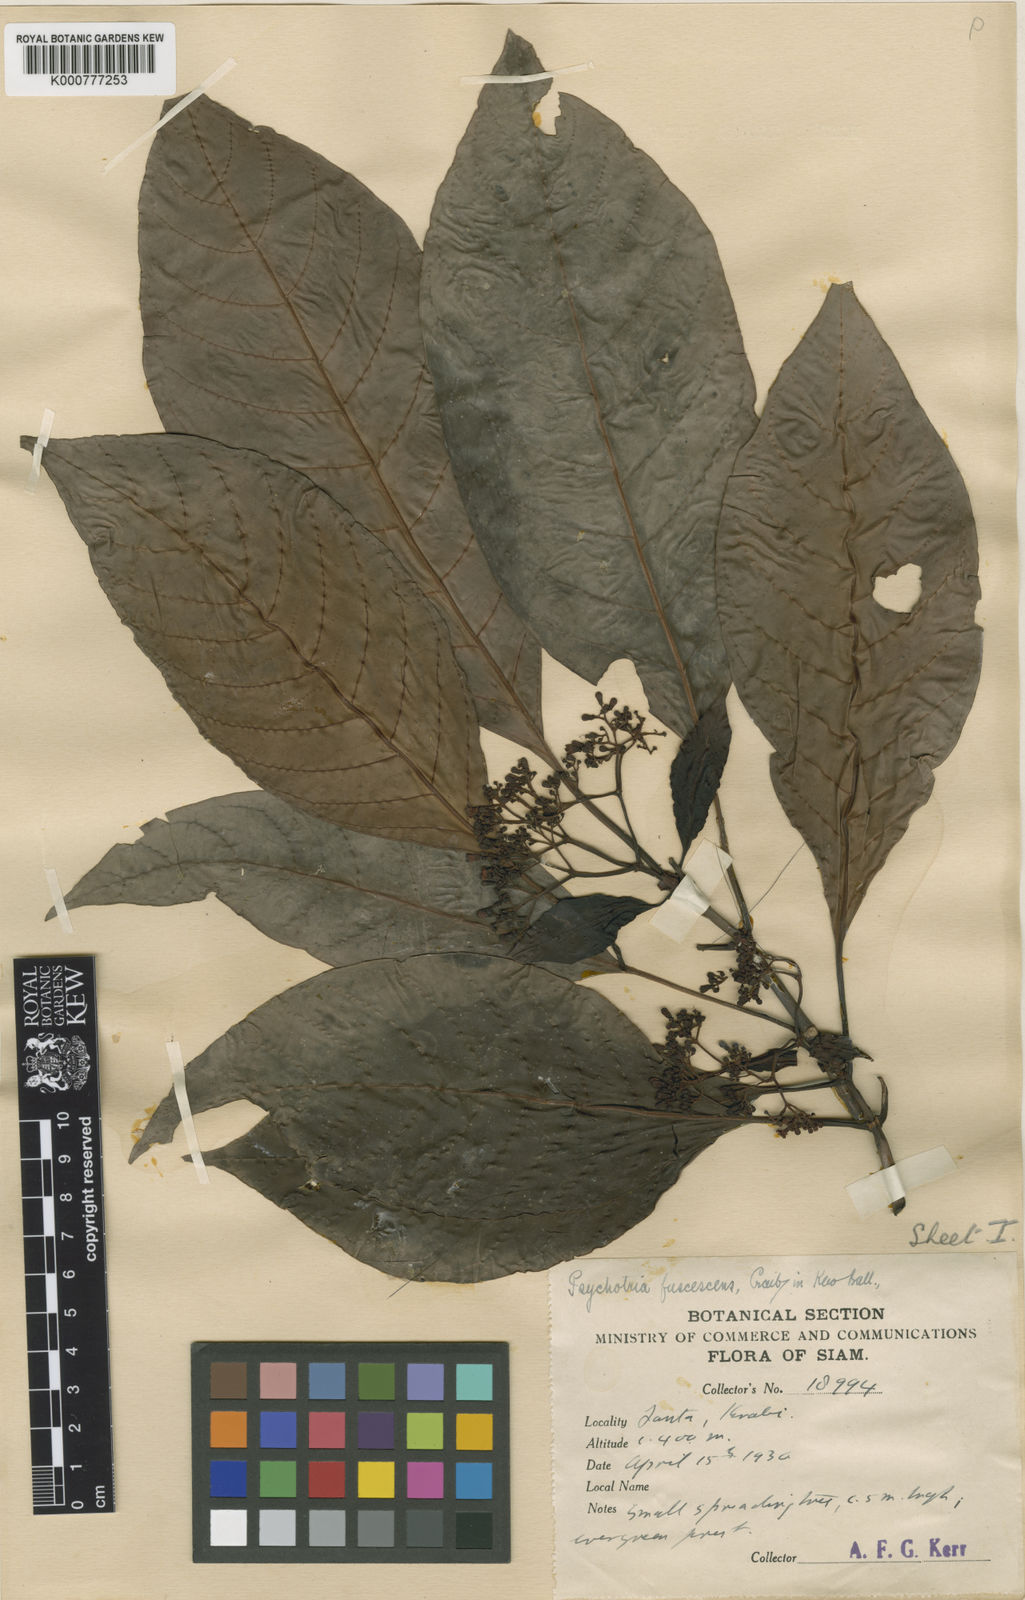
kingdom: Plantae
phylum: Tracheophyta
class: Magnoliopsida
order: Gentianales
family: Rubiaceae
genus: Psychotria
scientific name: Psychotria fuscescens
